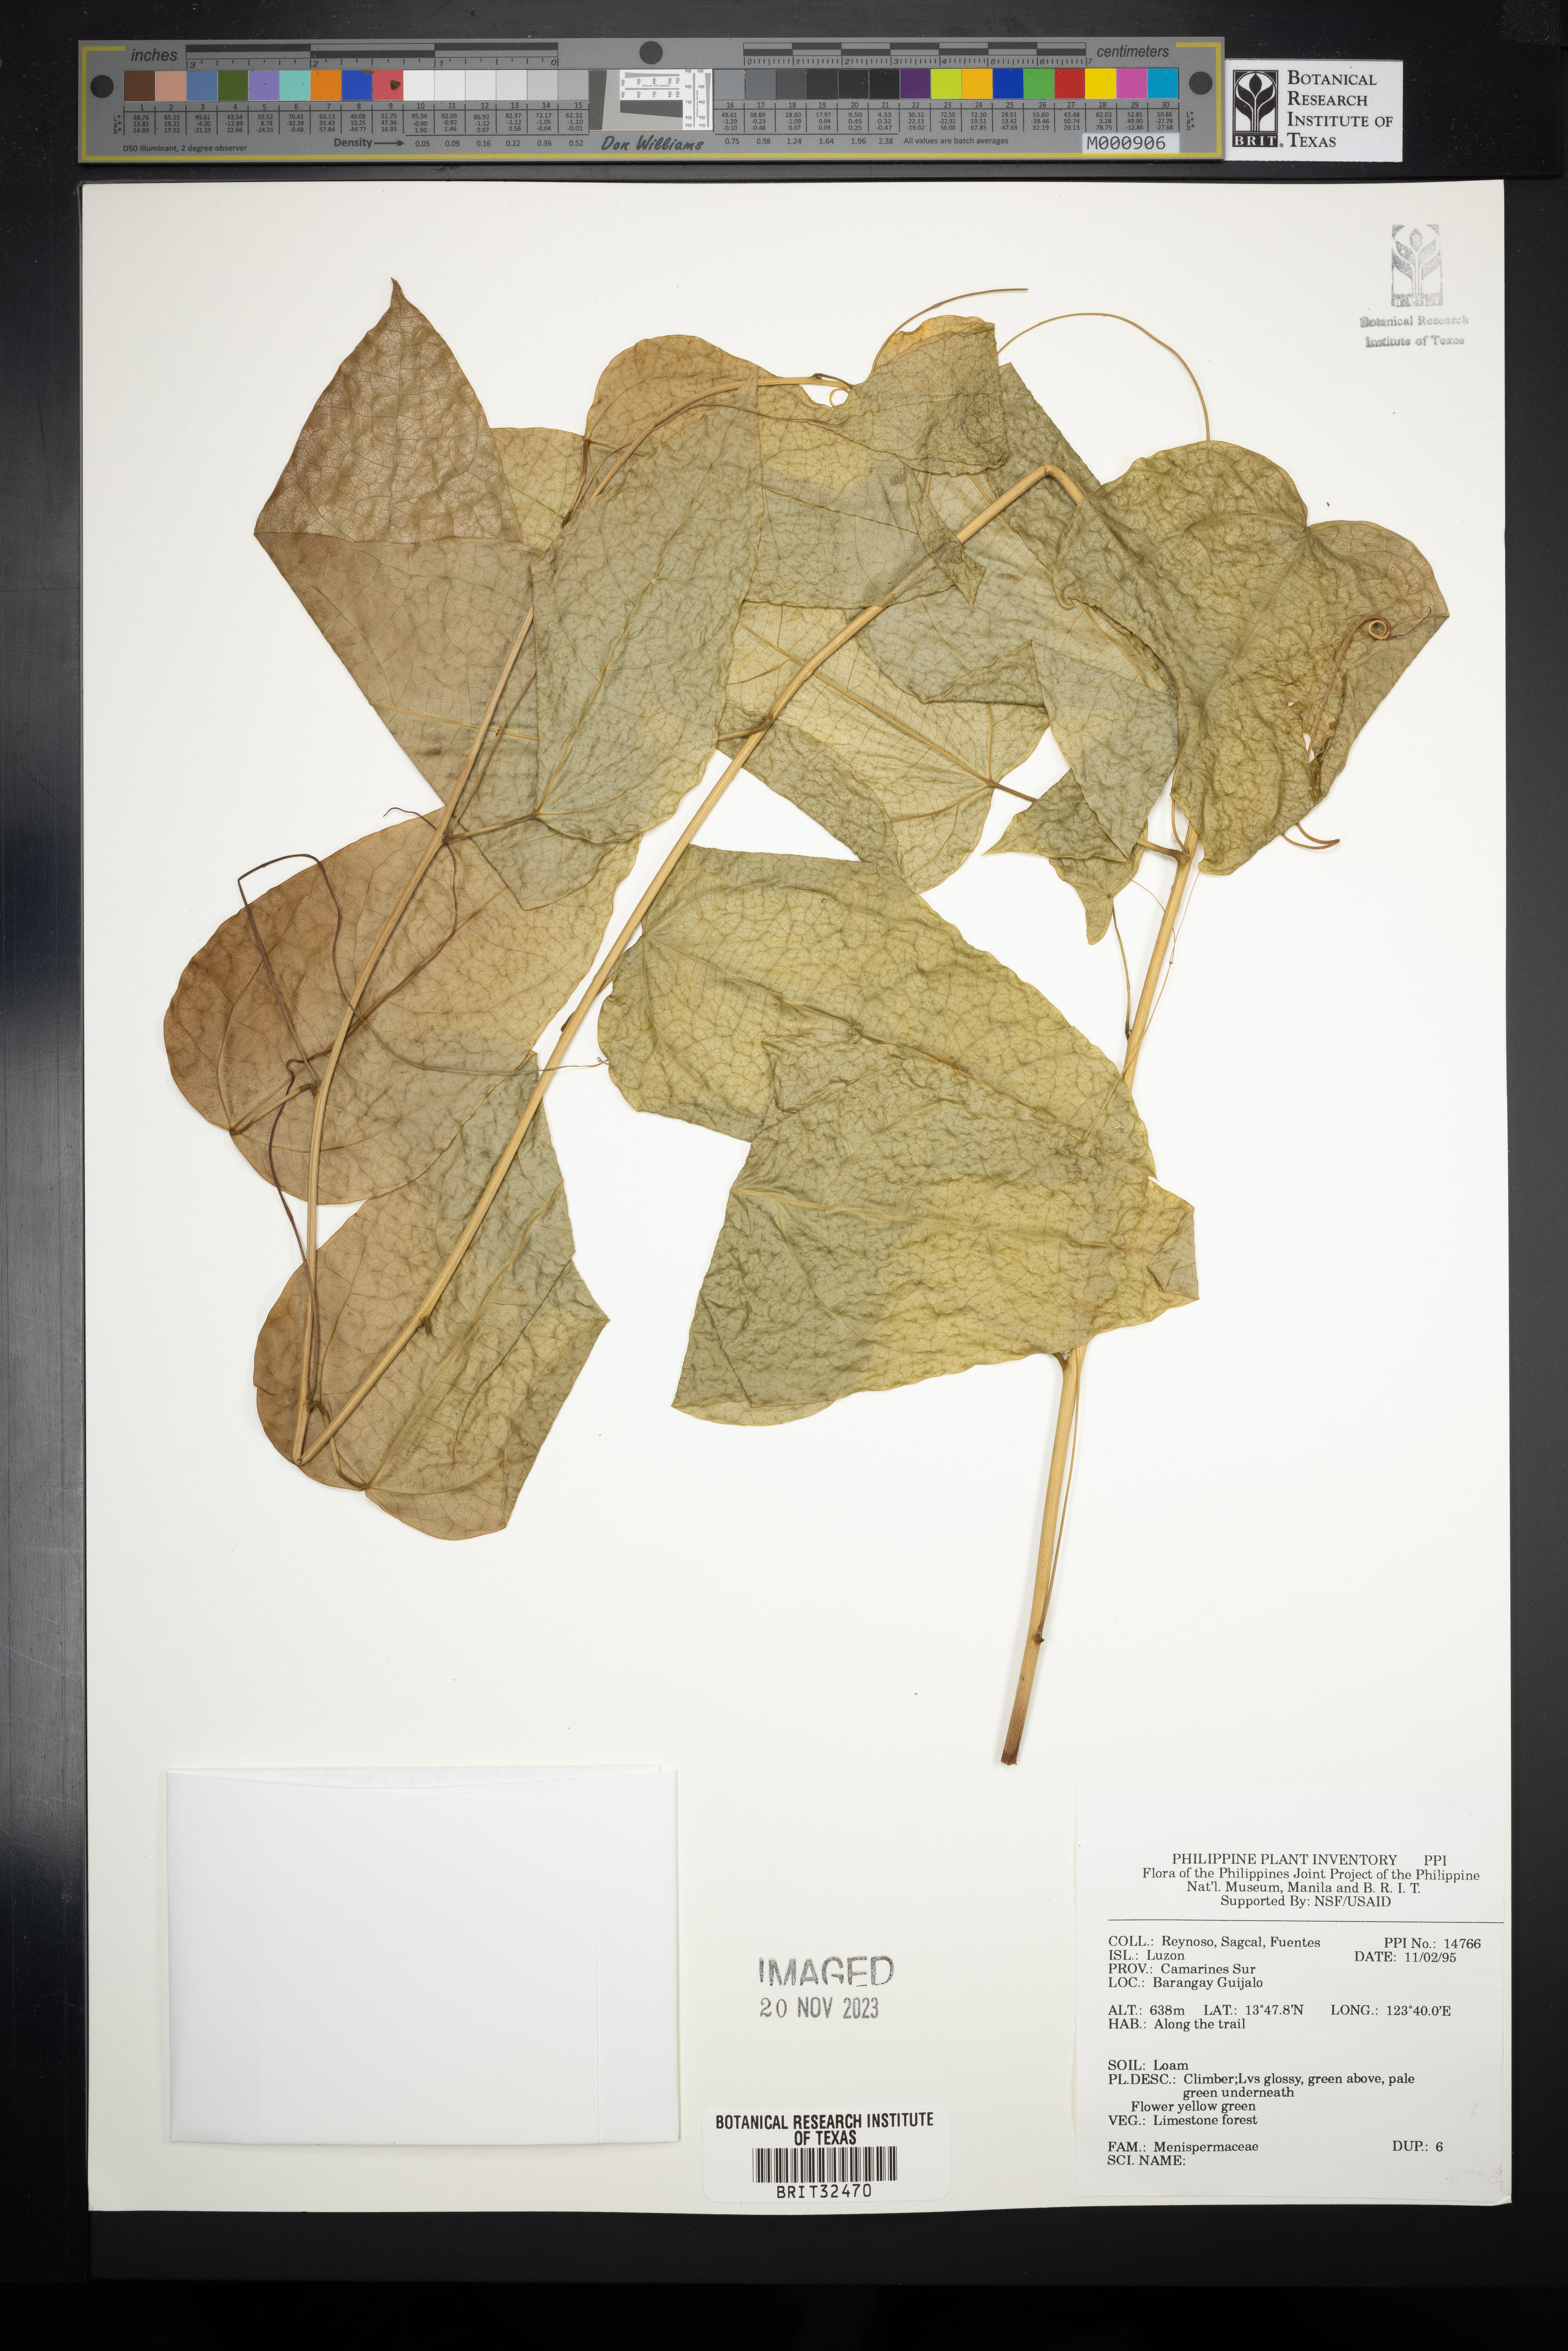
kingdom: Plantae
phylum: Tracheophyta
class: Magnoliopsida
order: Ranunculales
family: Menispermaceae
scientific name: Menispermaceae
